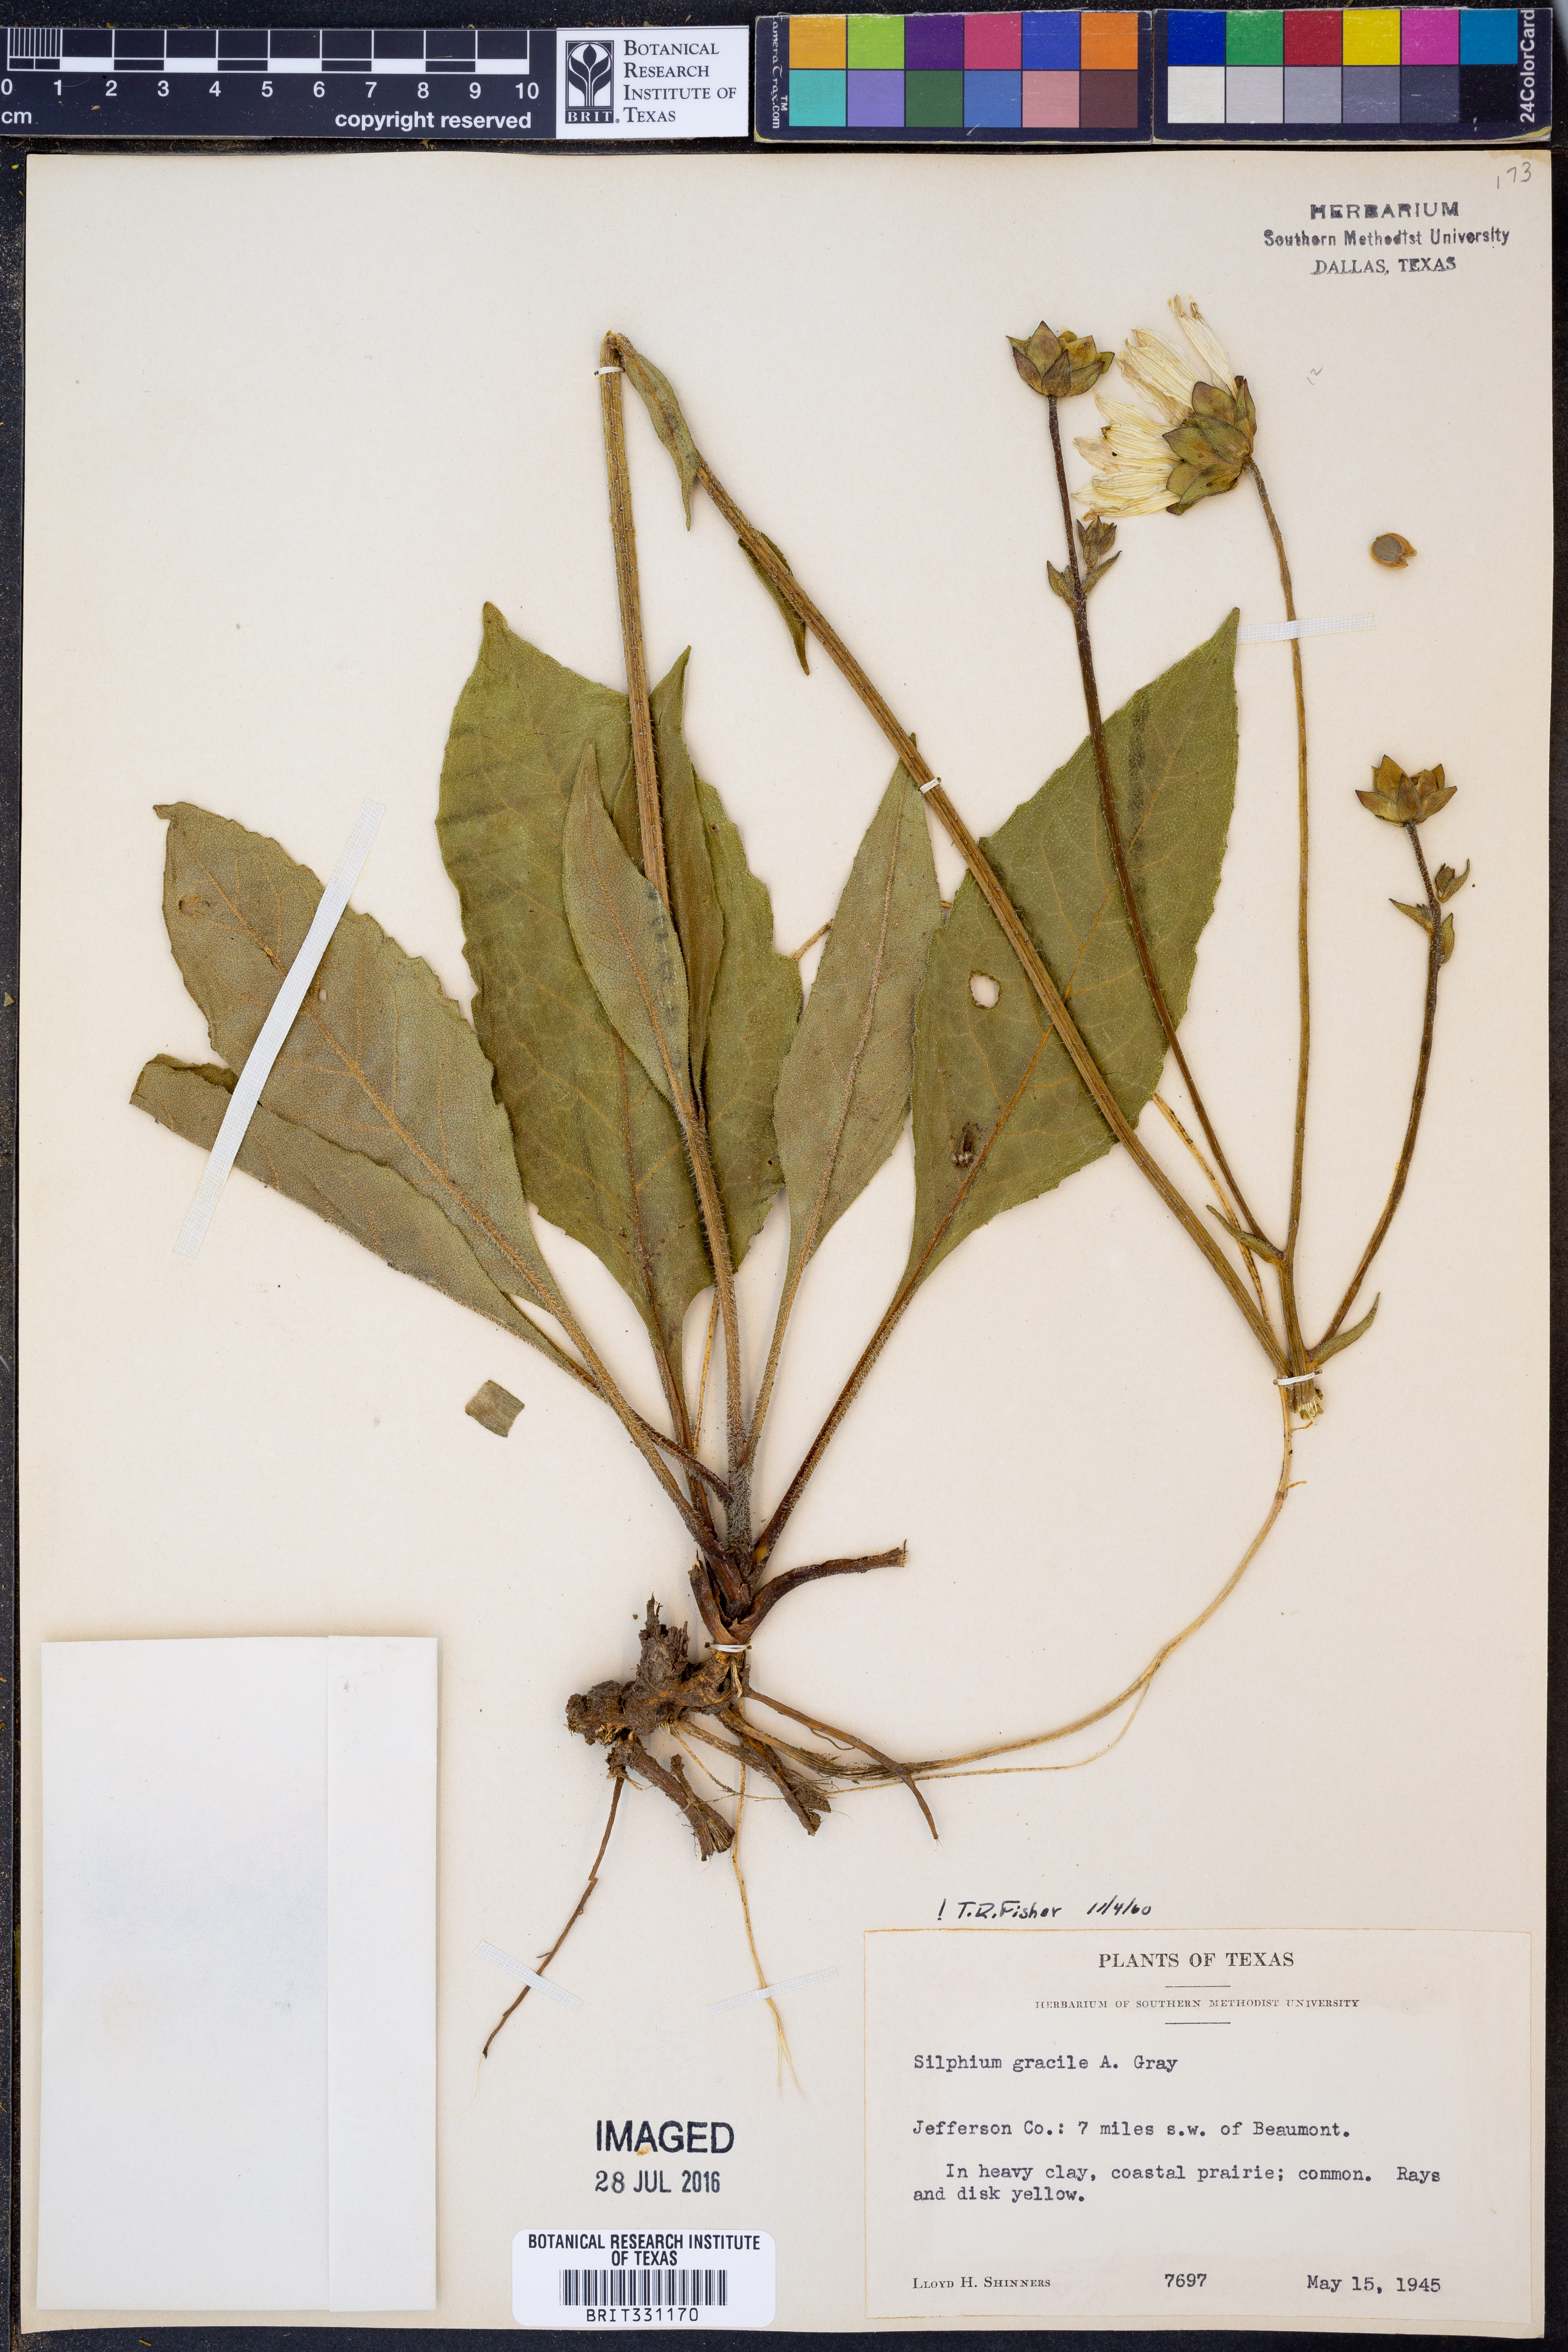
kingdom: Plantae
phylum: Tracheophyta
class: Magnoliopsida
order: Asterales
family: Asteraceae
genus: Silphium
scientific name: Silphium radula
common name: Roughleaf rosinweed
